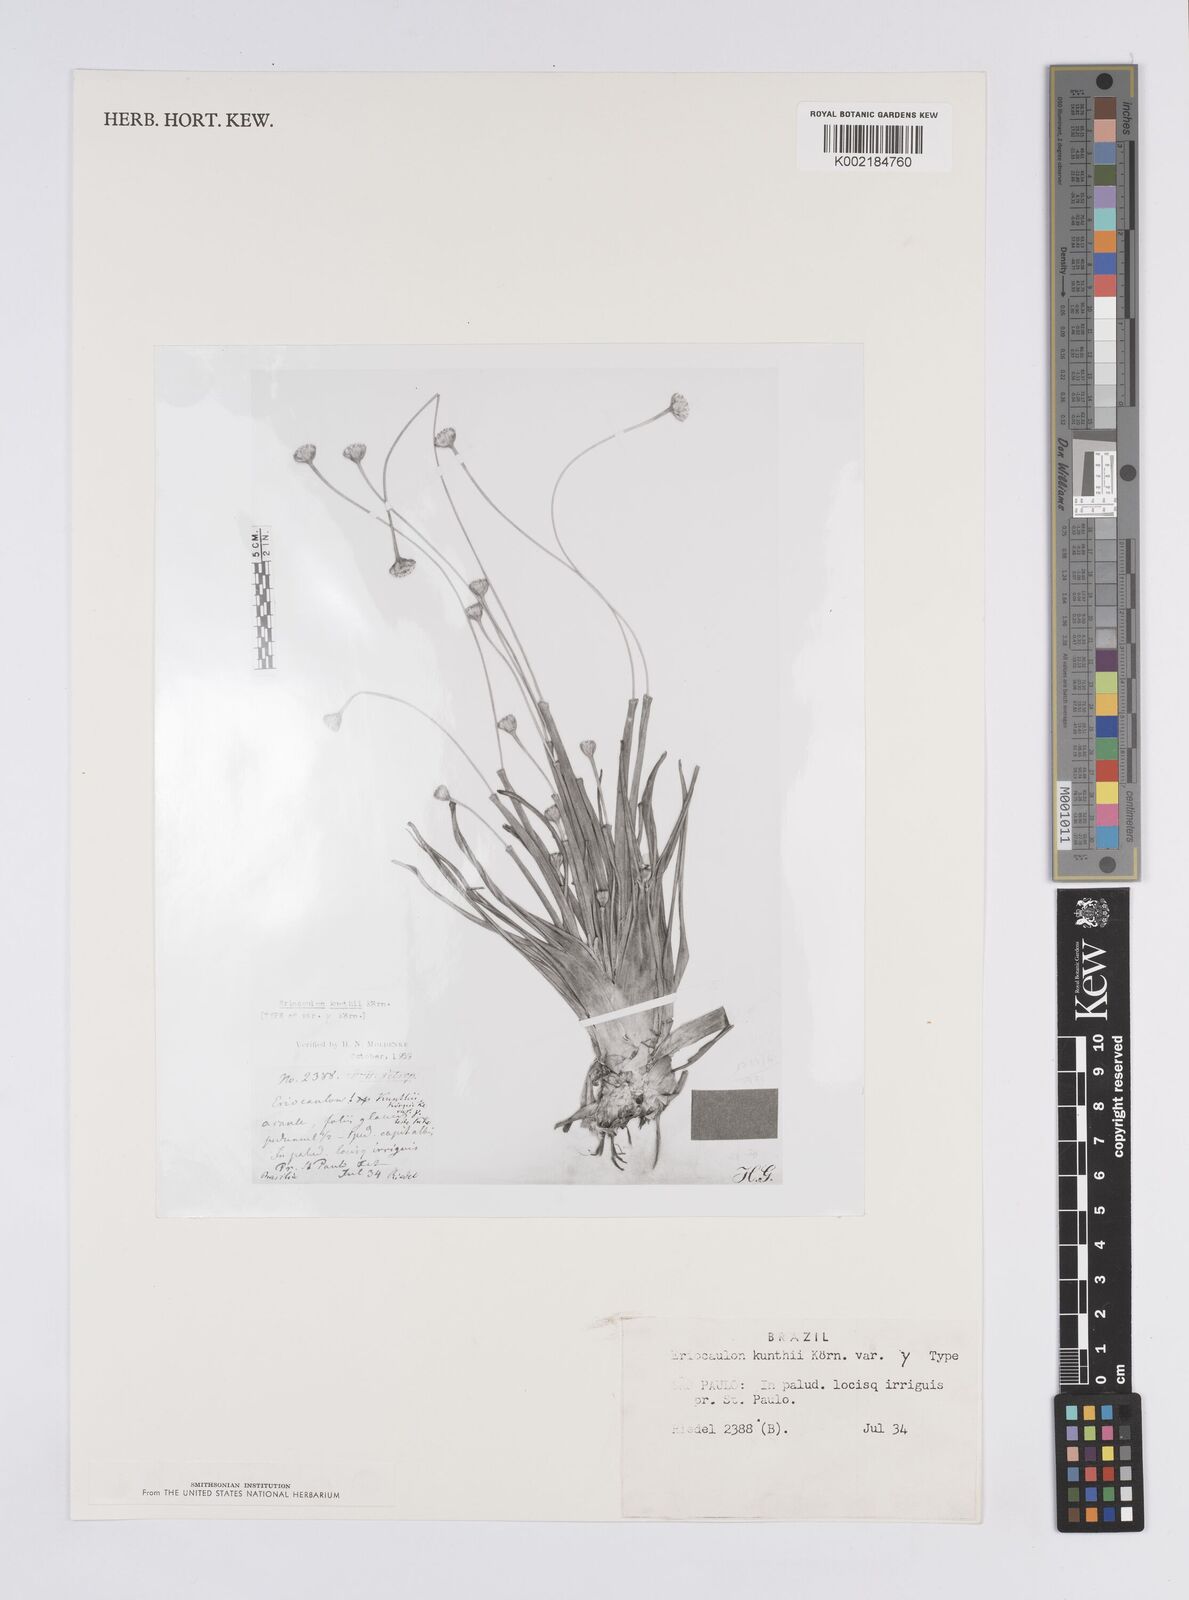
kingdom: Plantae
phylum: Tracheophyta
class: Liliopsida
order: Poales
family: Eriocaulaceae
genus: Eriocaulon
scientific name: Eriocaulon ligulatum
